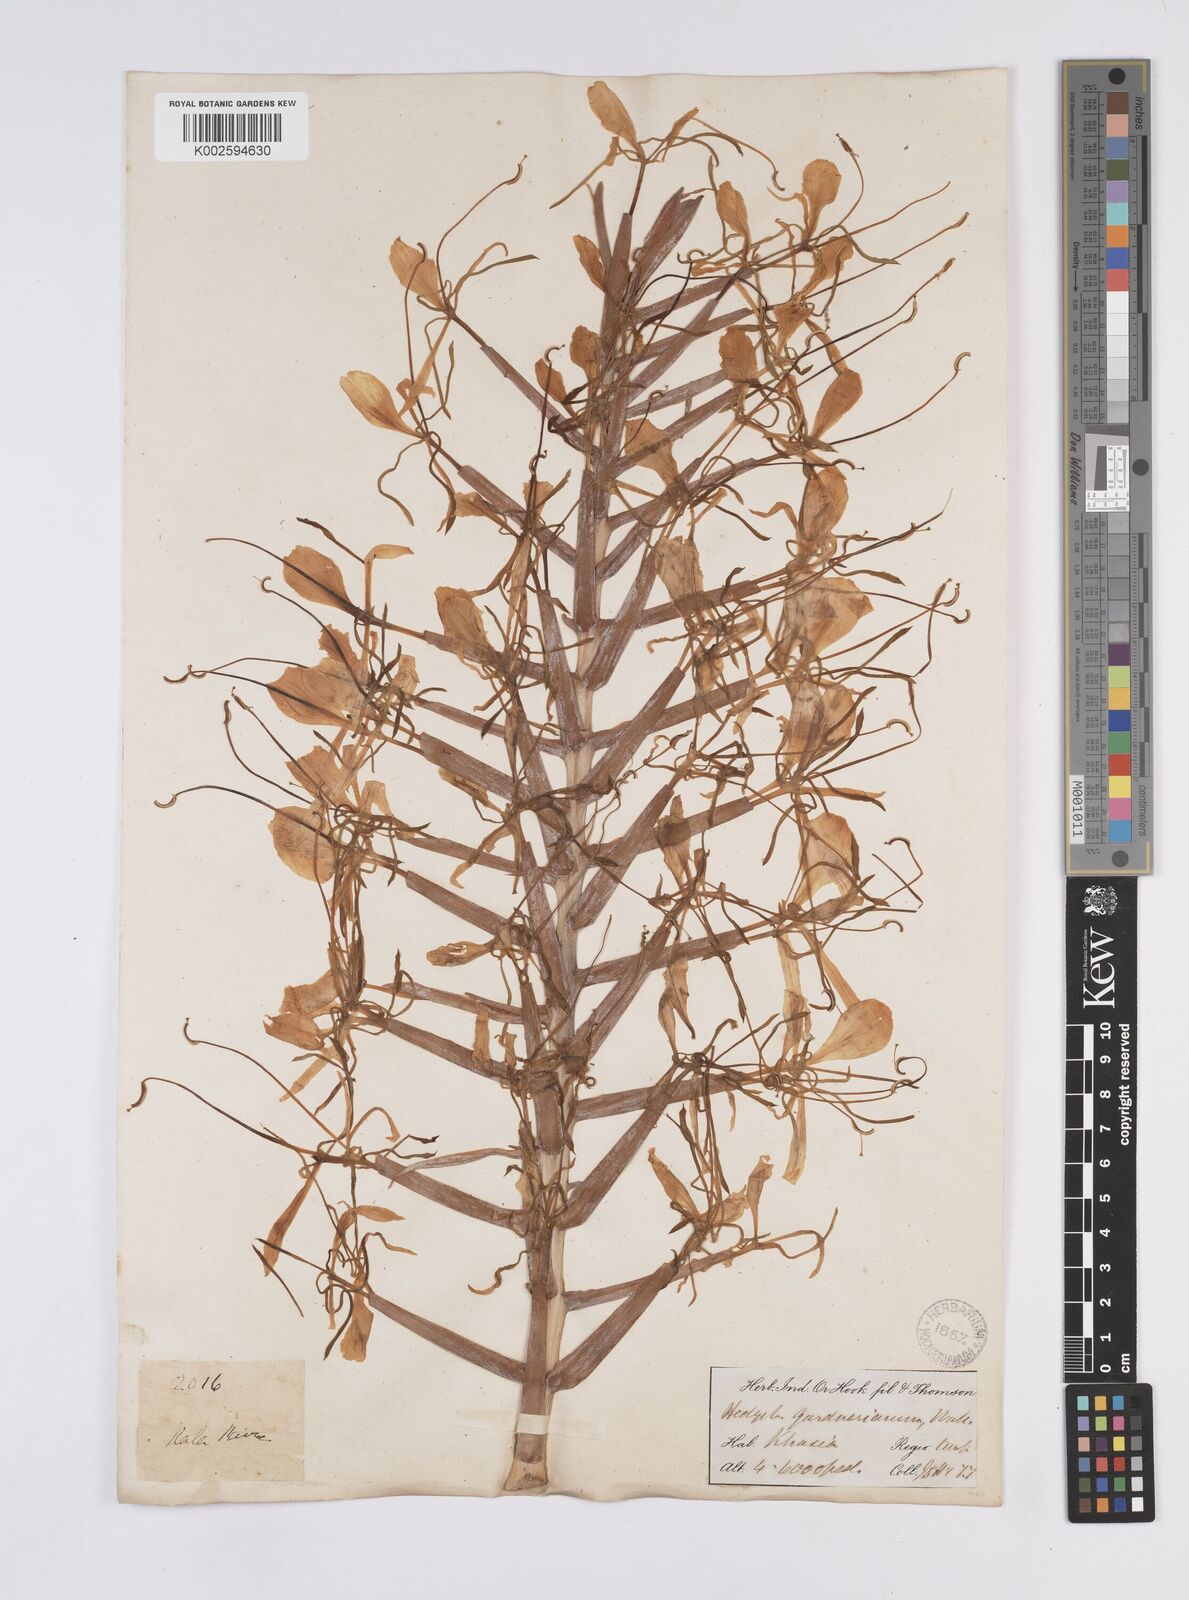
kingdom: Plantae
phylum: Tracheophyta
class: Liliopsida
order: Zingiberales
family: Zingiberaceae
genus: Hedychium
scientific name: Hedychium gardnerianum
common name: Himalayan ginger
